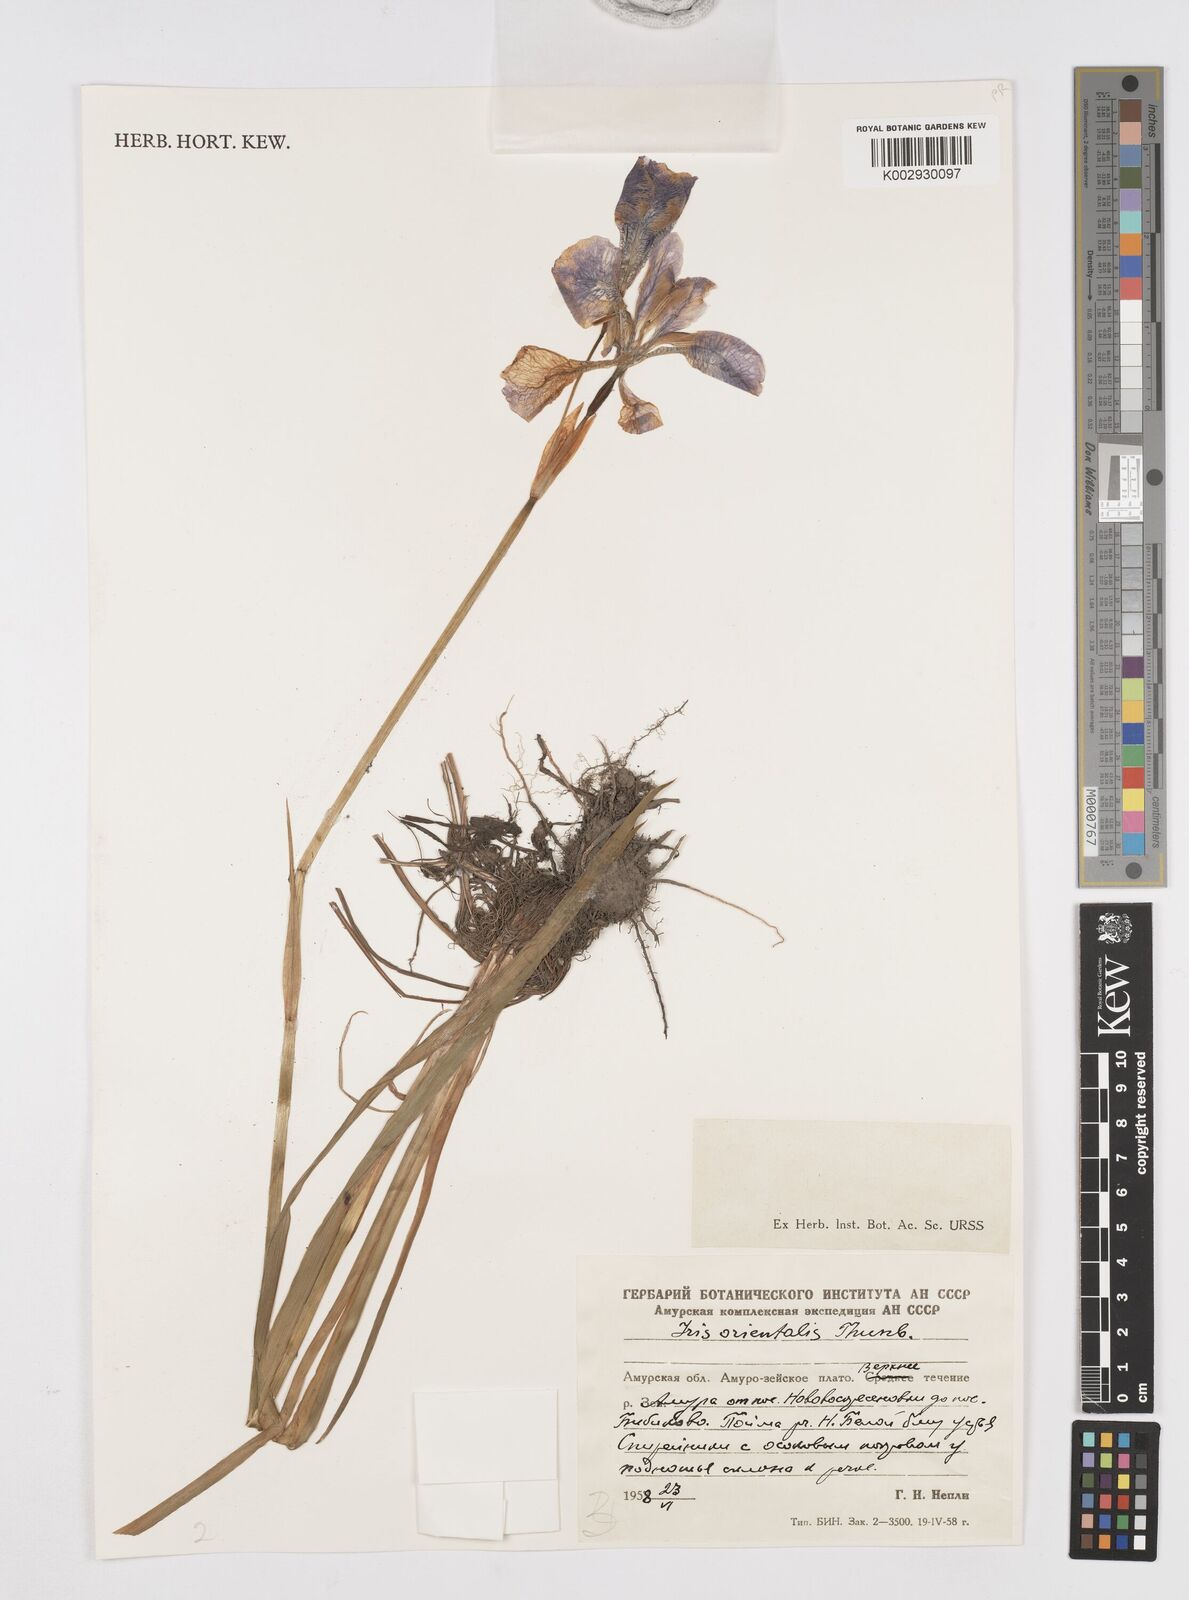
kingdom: Plantae
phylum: Tracheophyta
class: Liliopsida
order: Asparagales
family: Iridaceae
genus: Iris
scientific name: Iris sanguinea
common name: Blood iris
